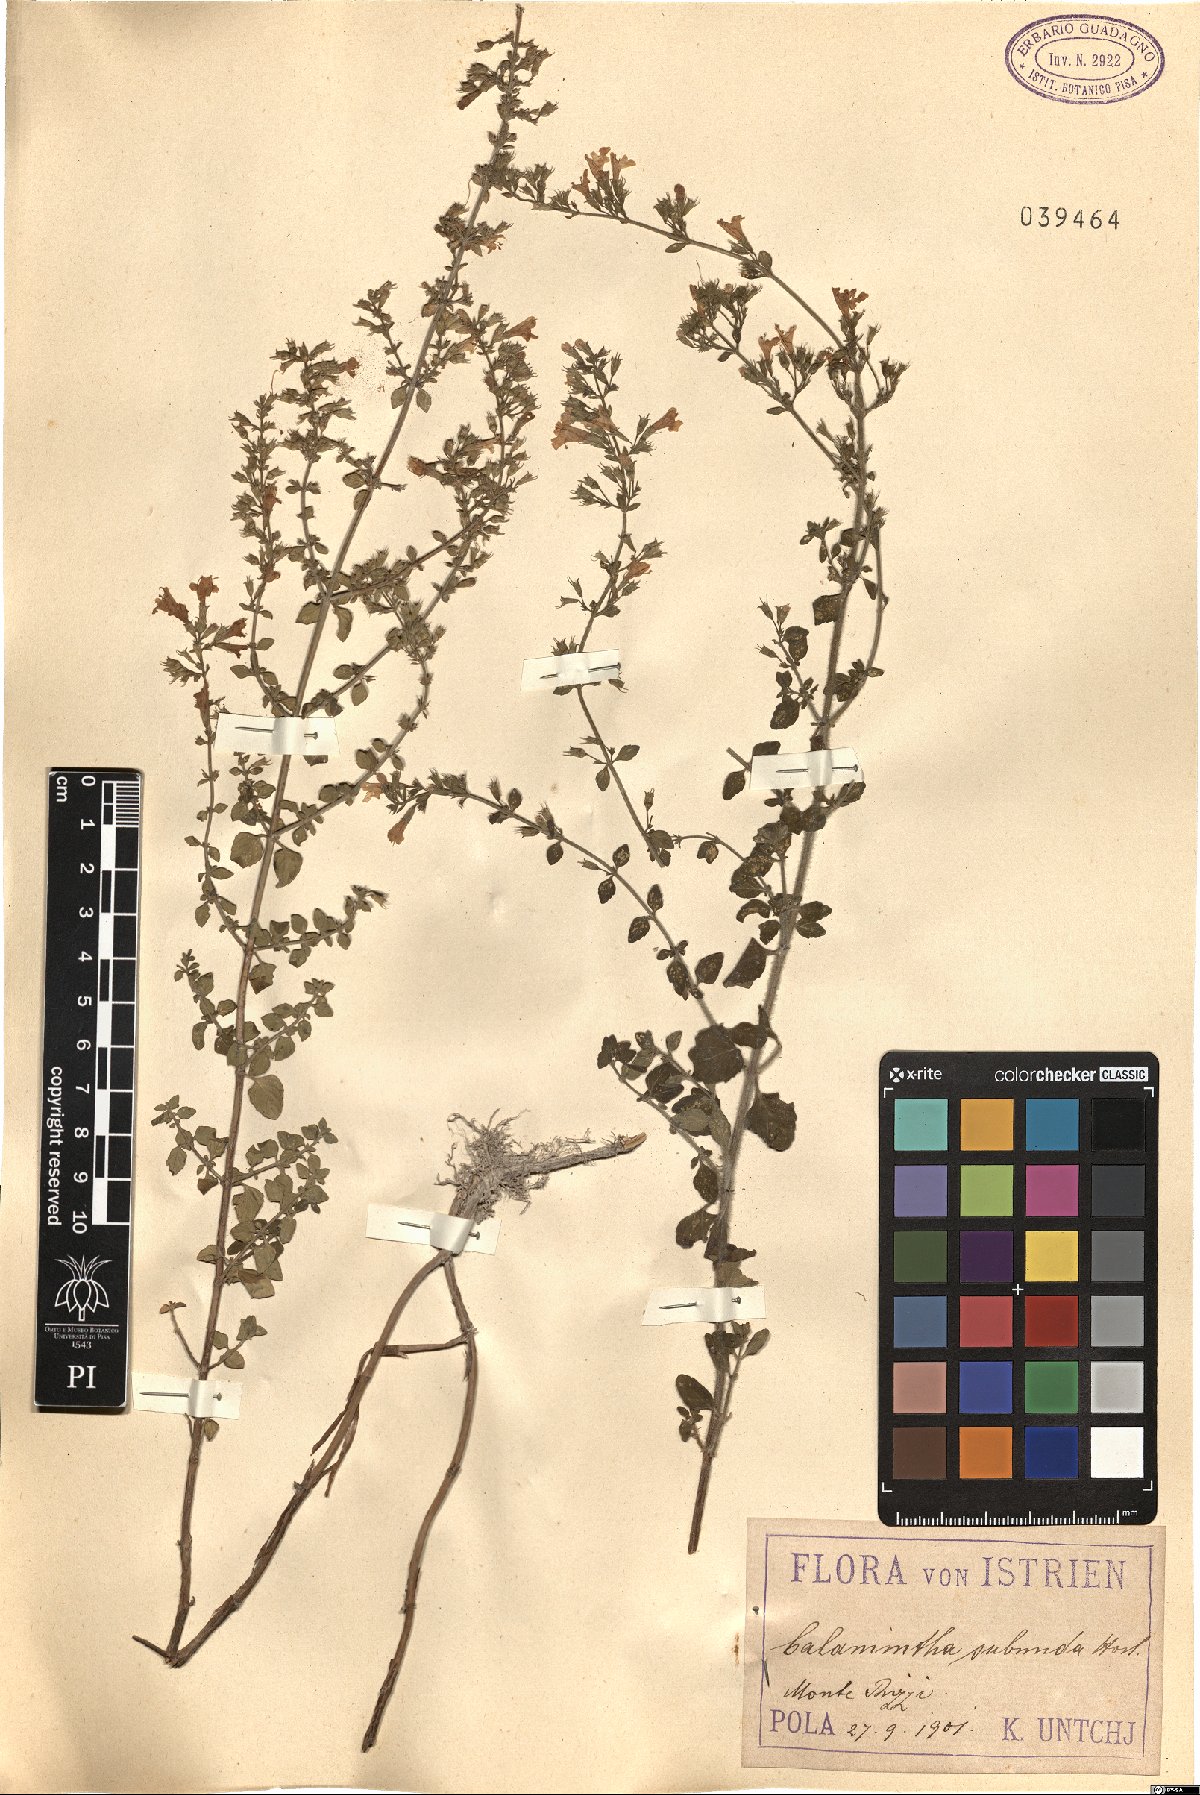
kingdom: Plantae
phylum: Tracheophyta
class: Magnoliopsida
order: Lamiales
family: Lamiaceae
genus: Clinopodium
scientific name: Clinopodium nepeta
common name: Lesser calamint
